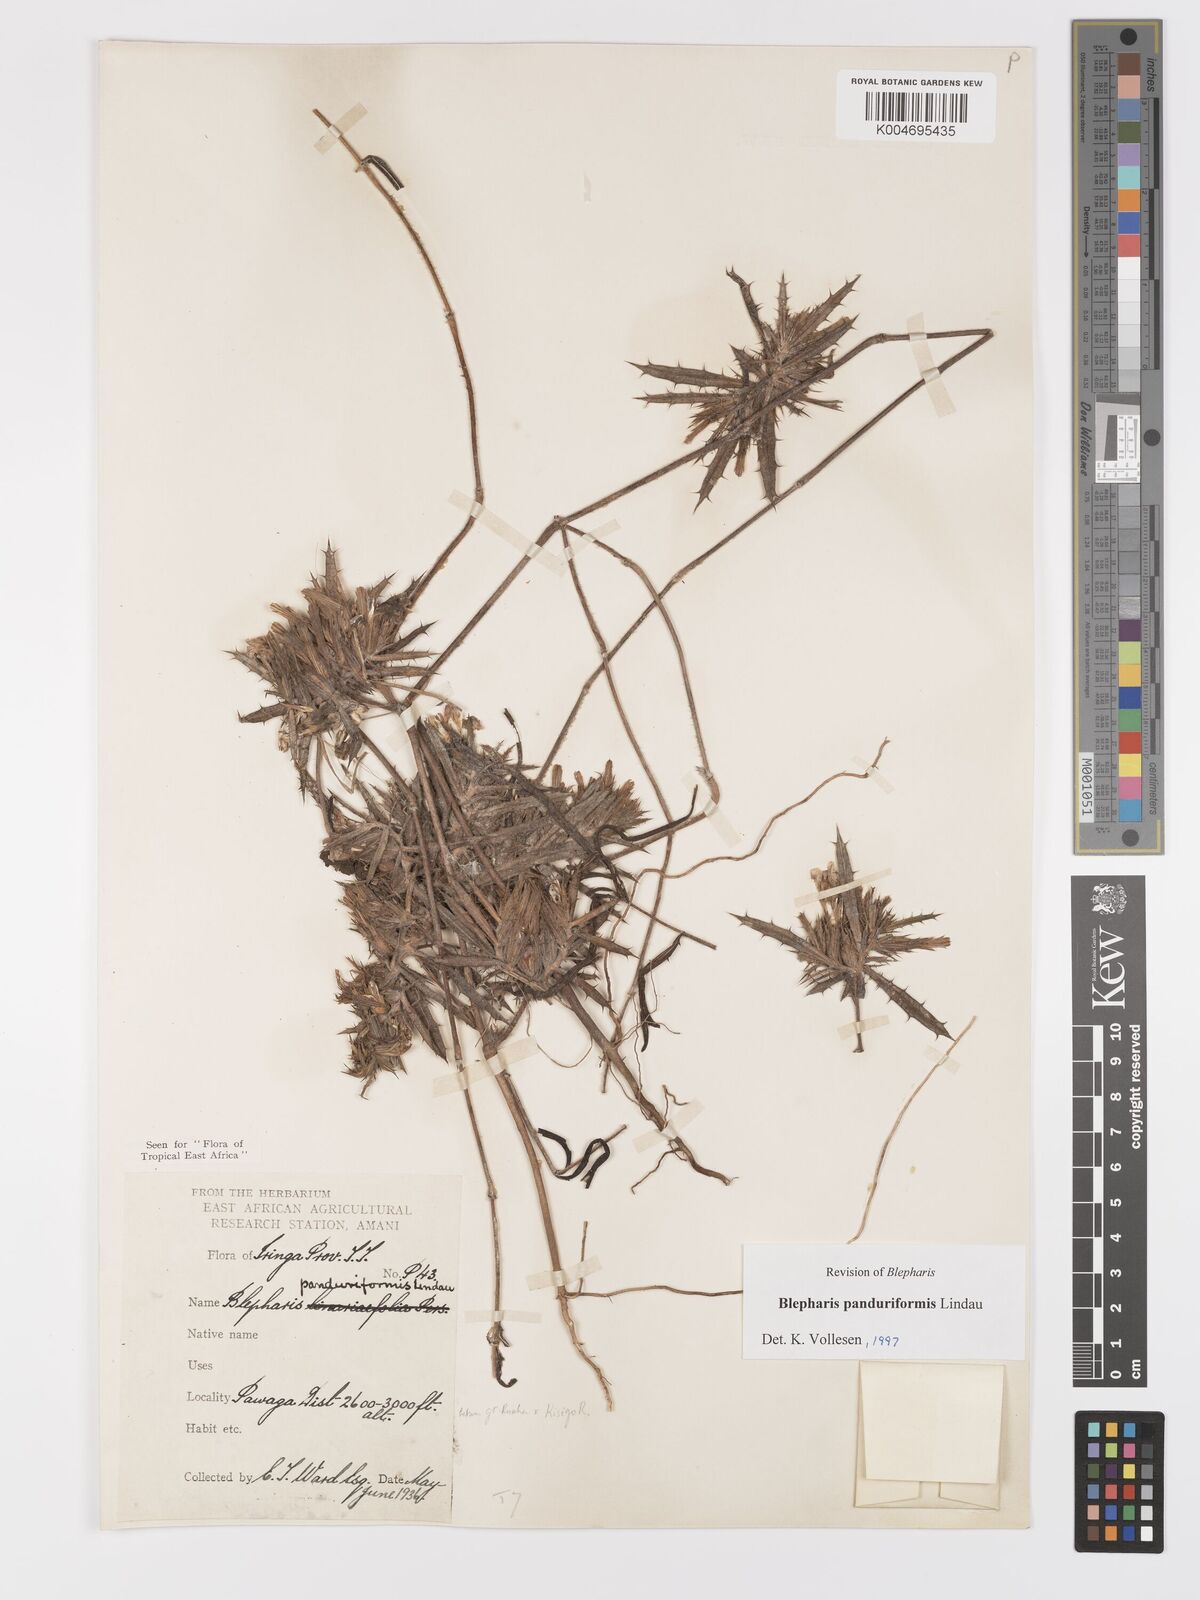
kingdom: Plantae
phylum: Tracheophyta
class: Magnoliopsida
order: Lamiales
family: Acanthaceae
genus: Blepharis
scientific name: Blepharis panduriformis
